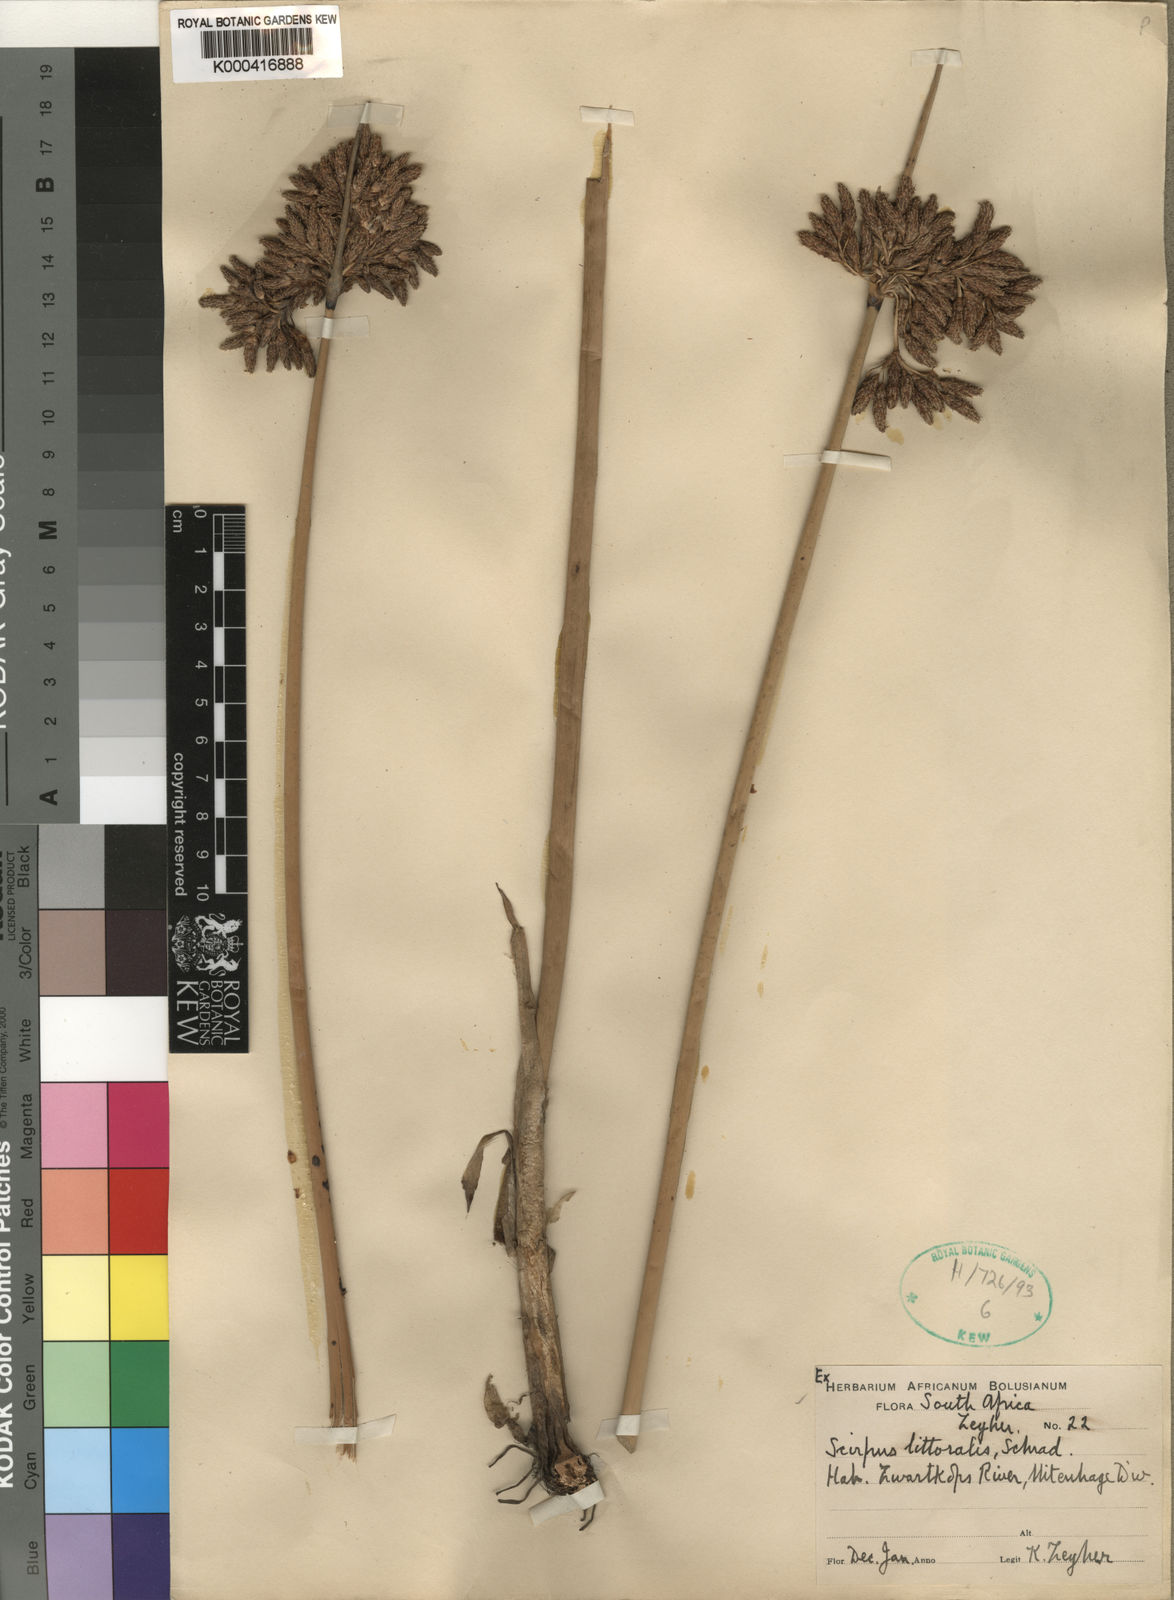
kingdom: Plantae
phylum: Tracheophyta
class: Liliopsida
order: Poales
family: Cyperaceae
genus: Schoenoplectus
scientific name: Schoenoplectus litoralis
